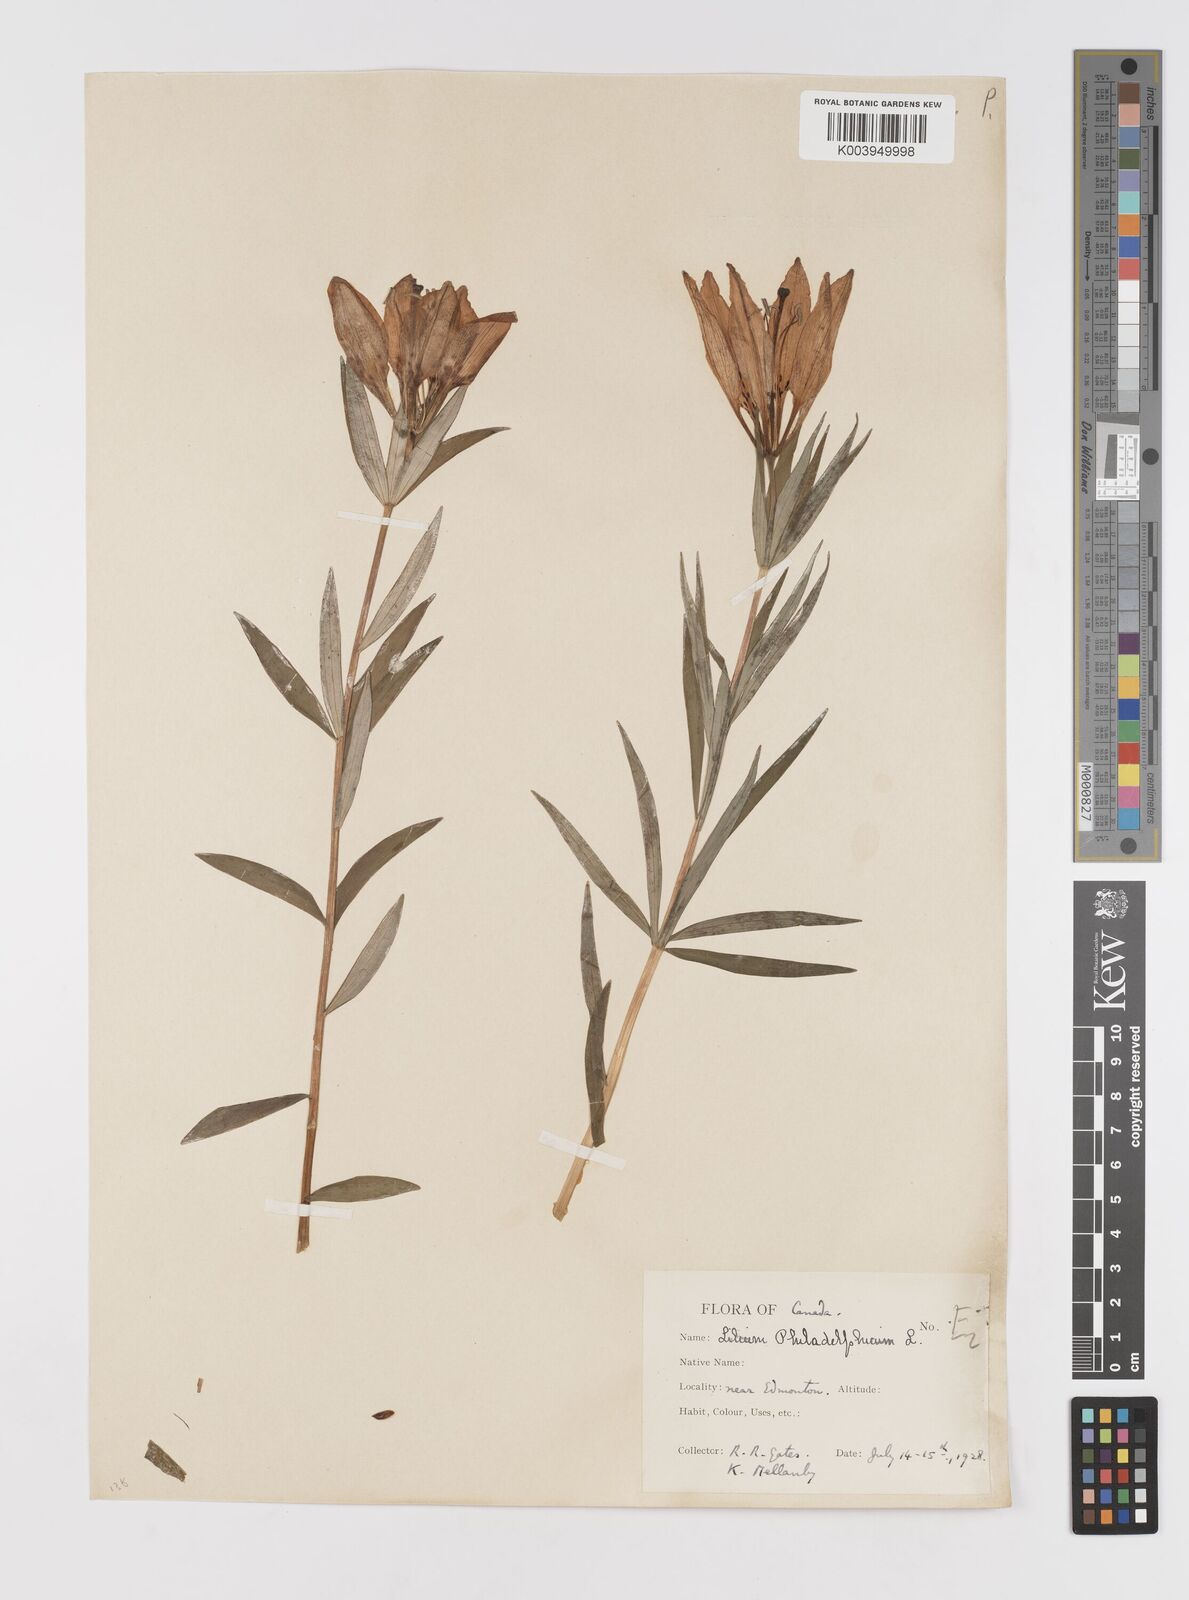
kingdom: Plantae
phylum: Tracheophyta
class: Liliopsida
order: Liliales
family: Liliaceae
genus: Lilium
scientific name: Lilium philadelphicum
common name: Red lily
